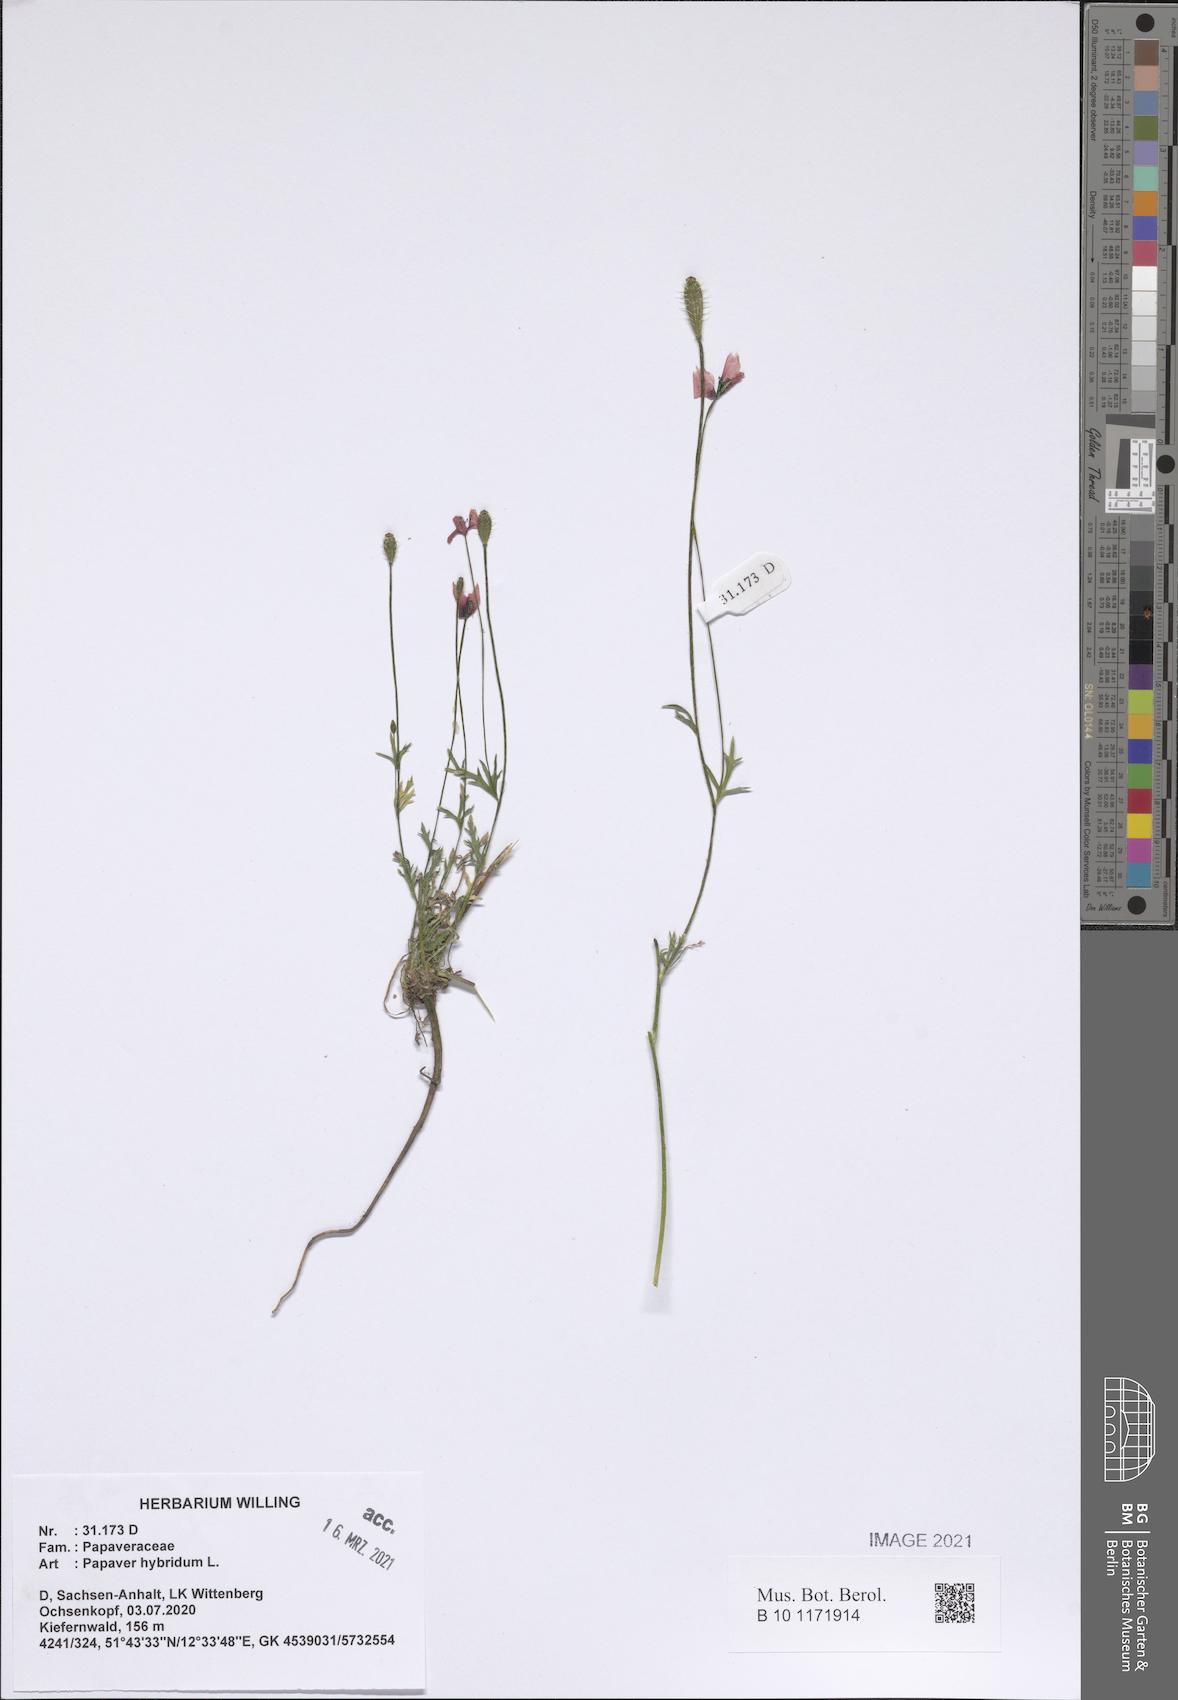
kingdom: Plantae
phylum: Tracheophyta
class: Magnoliopsida
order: Ranunculales
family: Papaveraceae
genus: Roemeria
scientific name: Roemeria hispida
